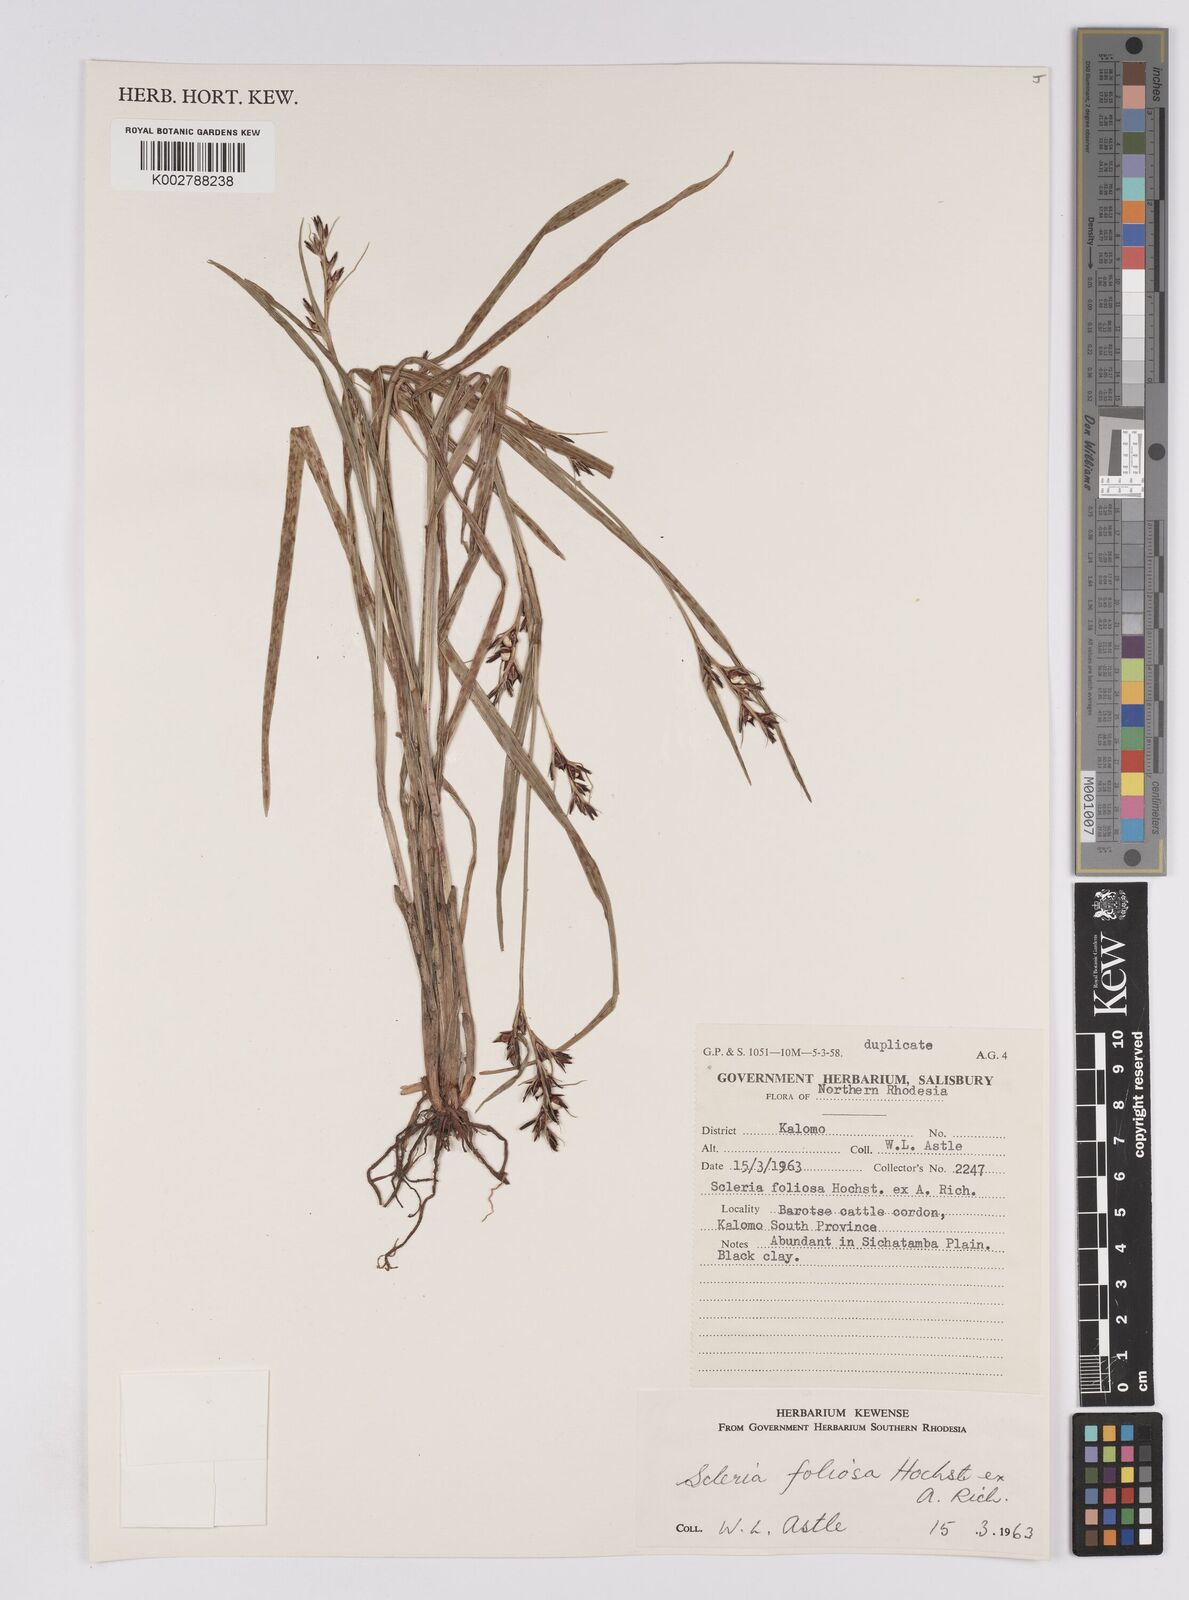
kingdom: Plantae
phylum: Tracheophyta
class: Liliopsida
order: Poales
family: Cyperaceae
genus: Scleria
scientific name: Scleria foliosa
